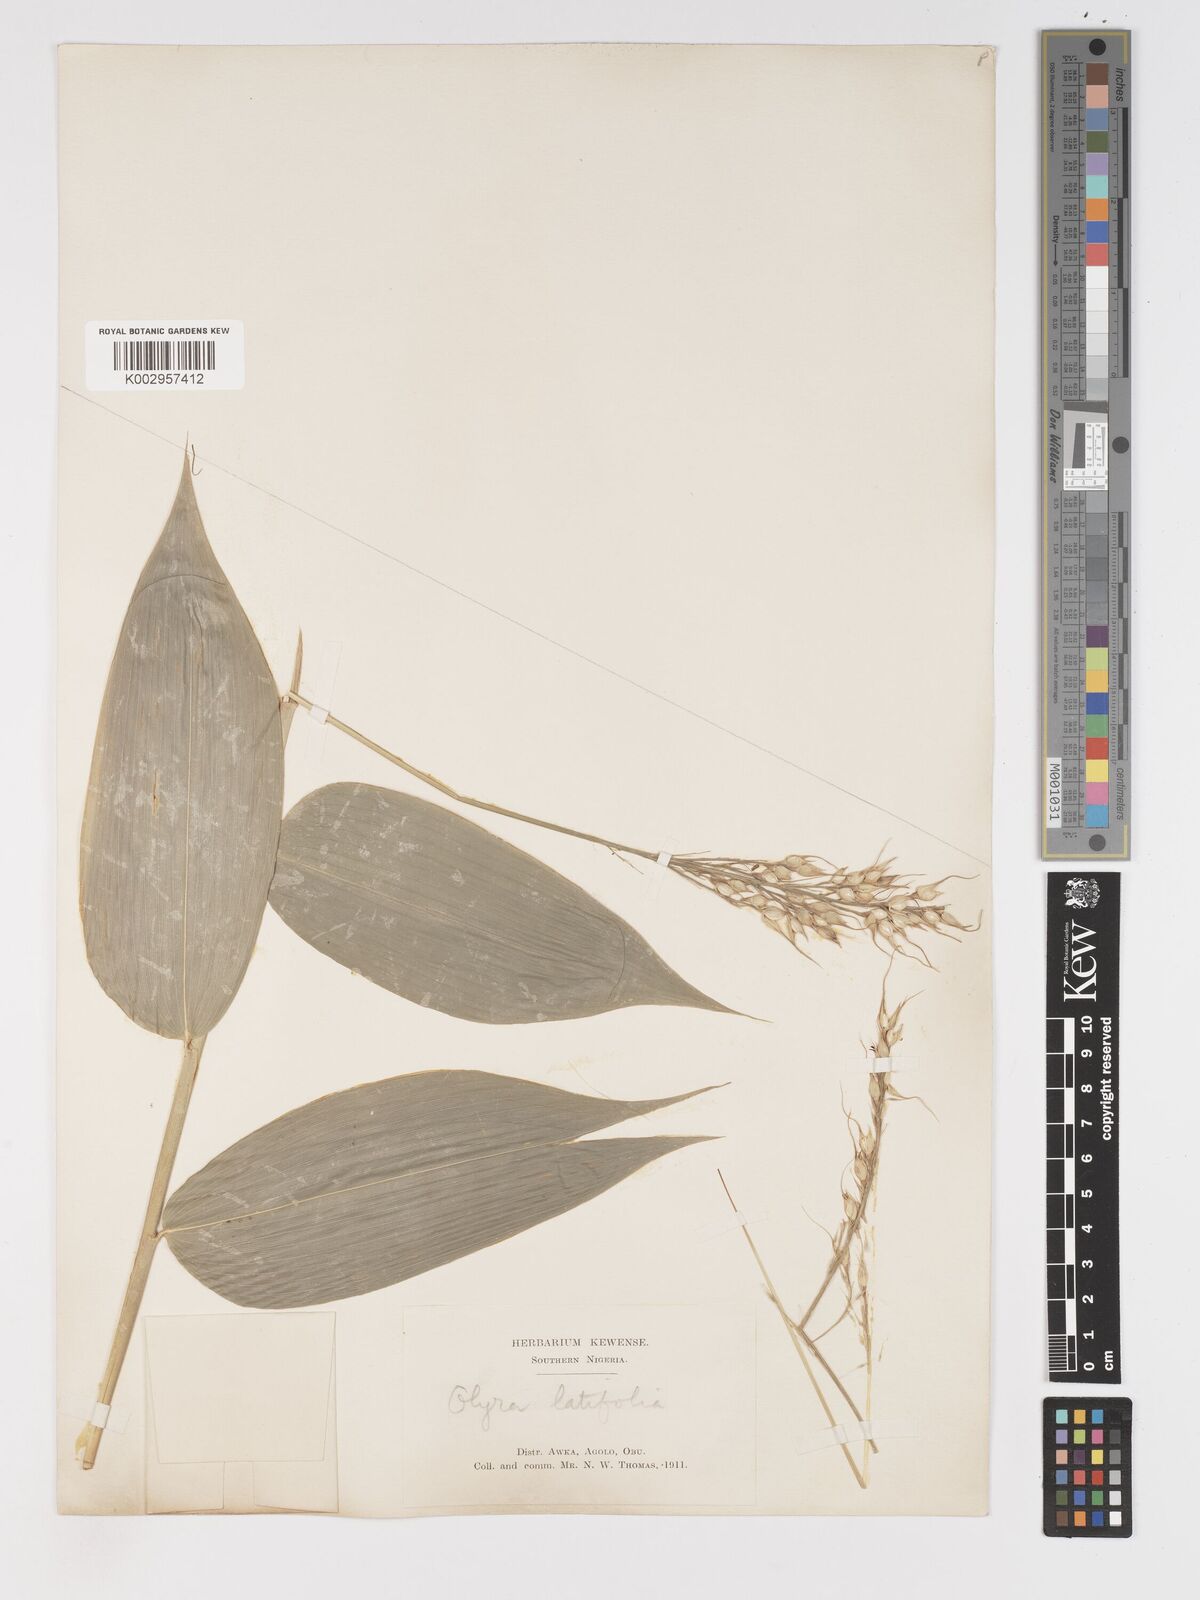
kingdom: Plantae
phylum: Tracheophyta
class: Liliopsida
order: Poales
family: Poaceae
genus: Olyra
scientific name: Olyra latifolia
